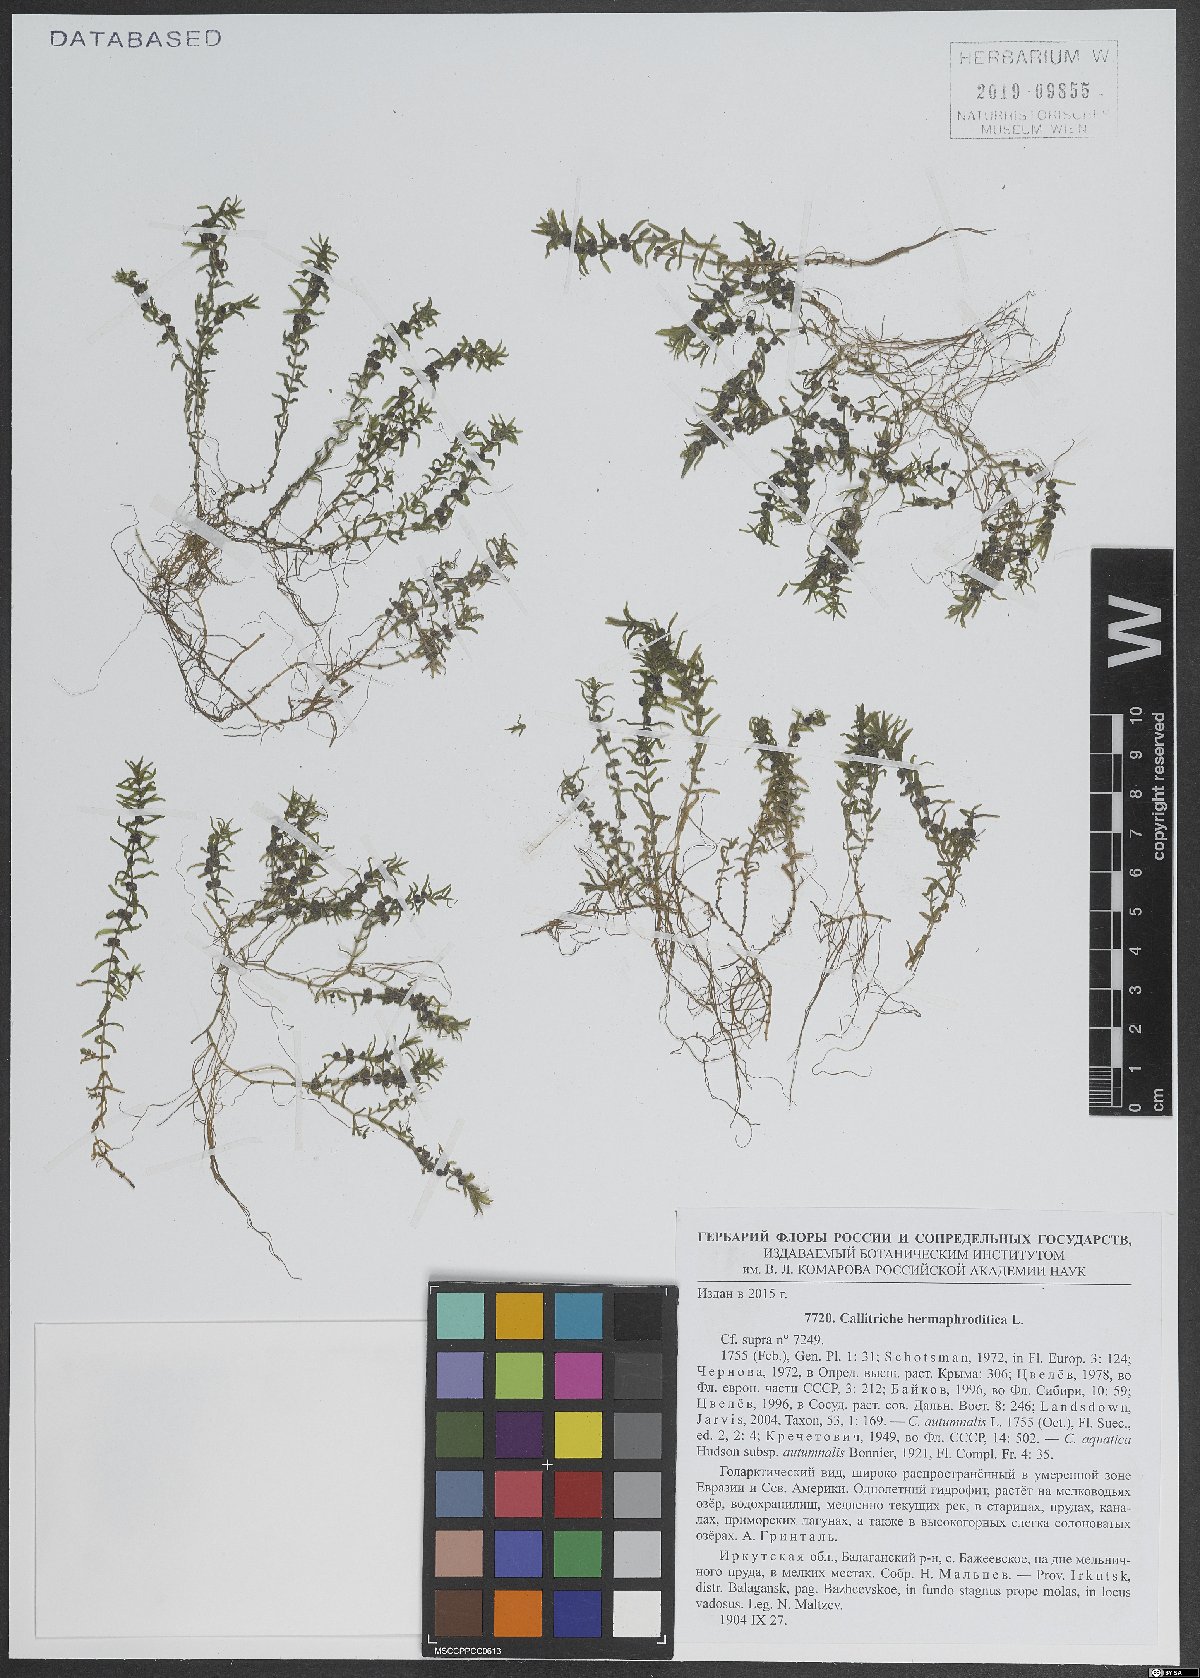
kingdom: Plantae
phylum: Tracheophyta
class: Magnoliopsida
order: Lamiales
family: Plantaginaceae
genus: Callitriche
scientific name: Callitriche hermaphroditica
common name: Autumnal water-starwort
